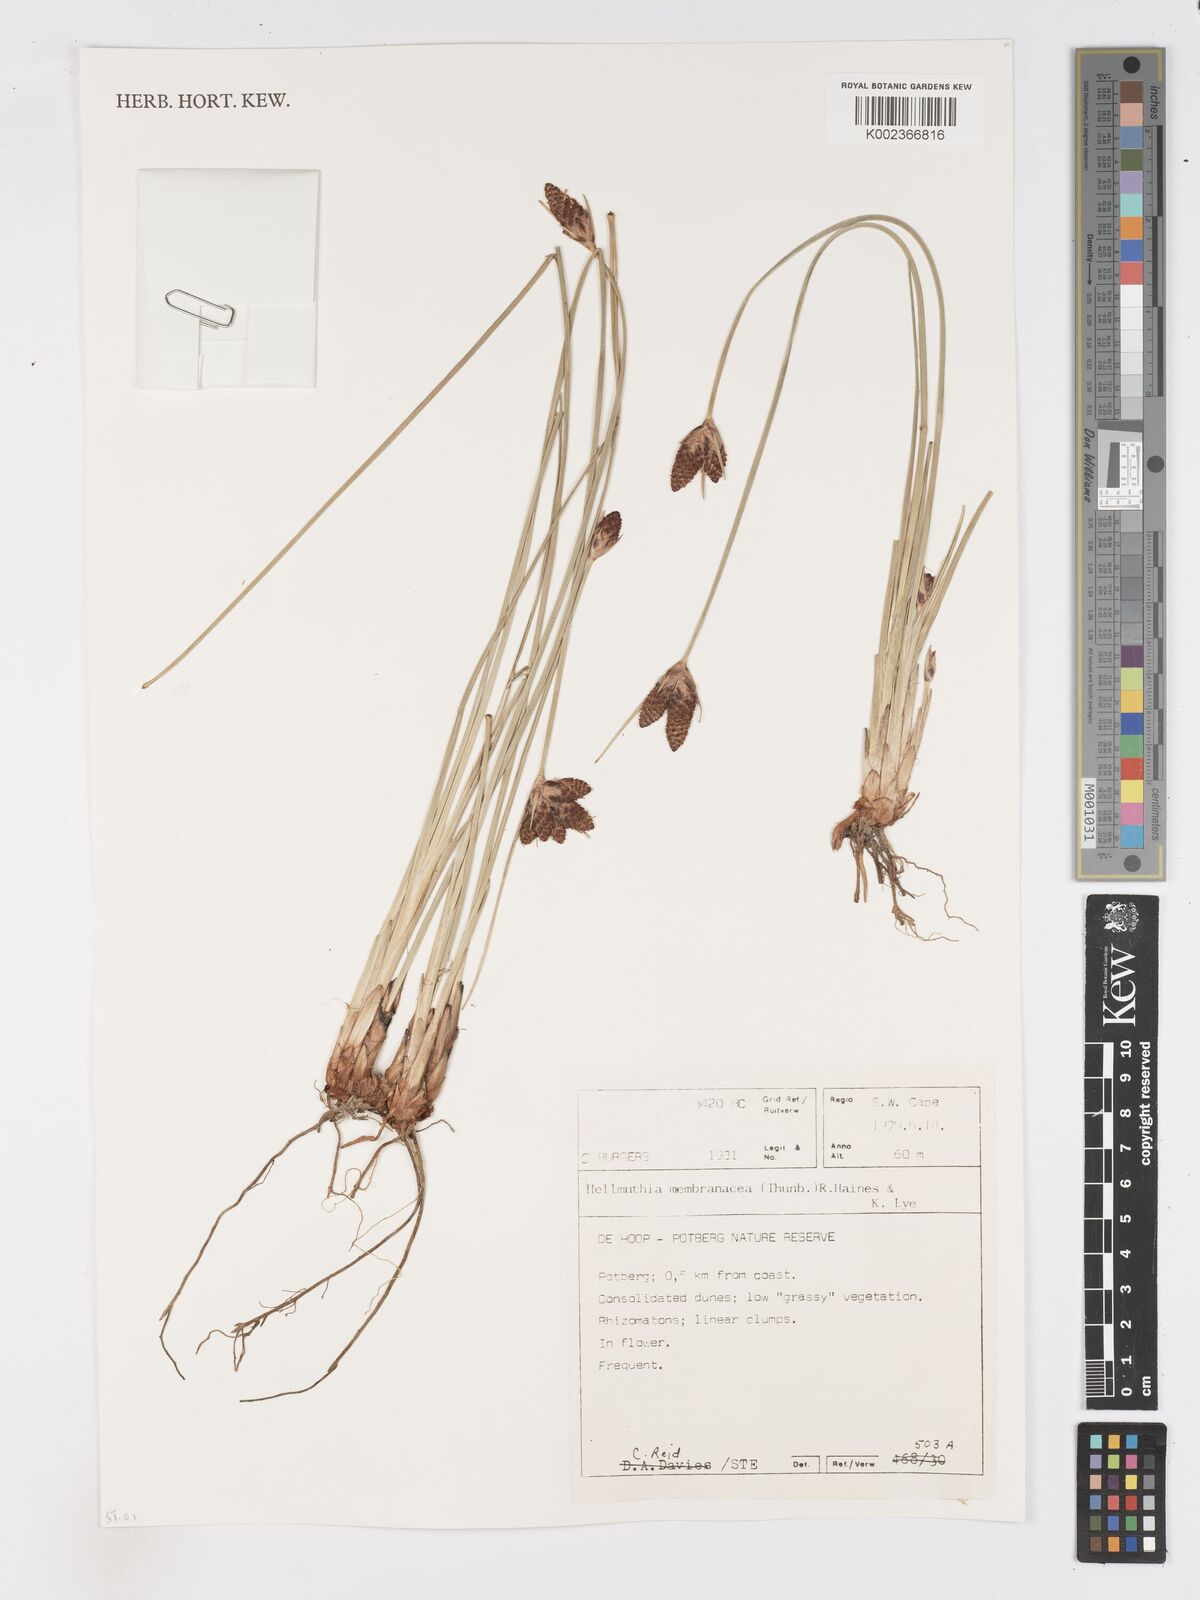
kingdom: Plantae
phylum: Tracheophyta
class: Liliopsida
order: Poales
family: Cyperaceae
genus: Hellmuthia
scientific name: Hellmuthia membranacea
